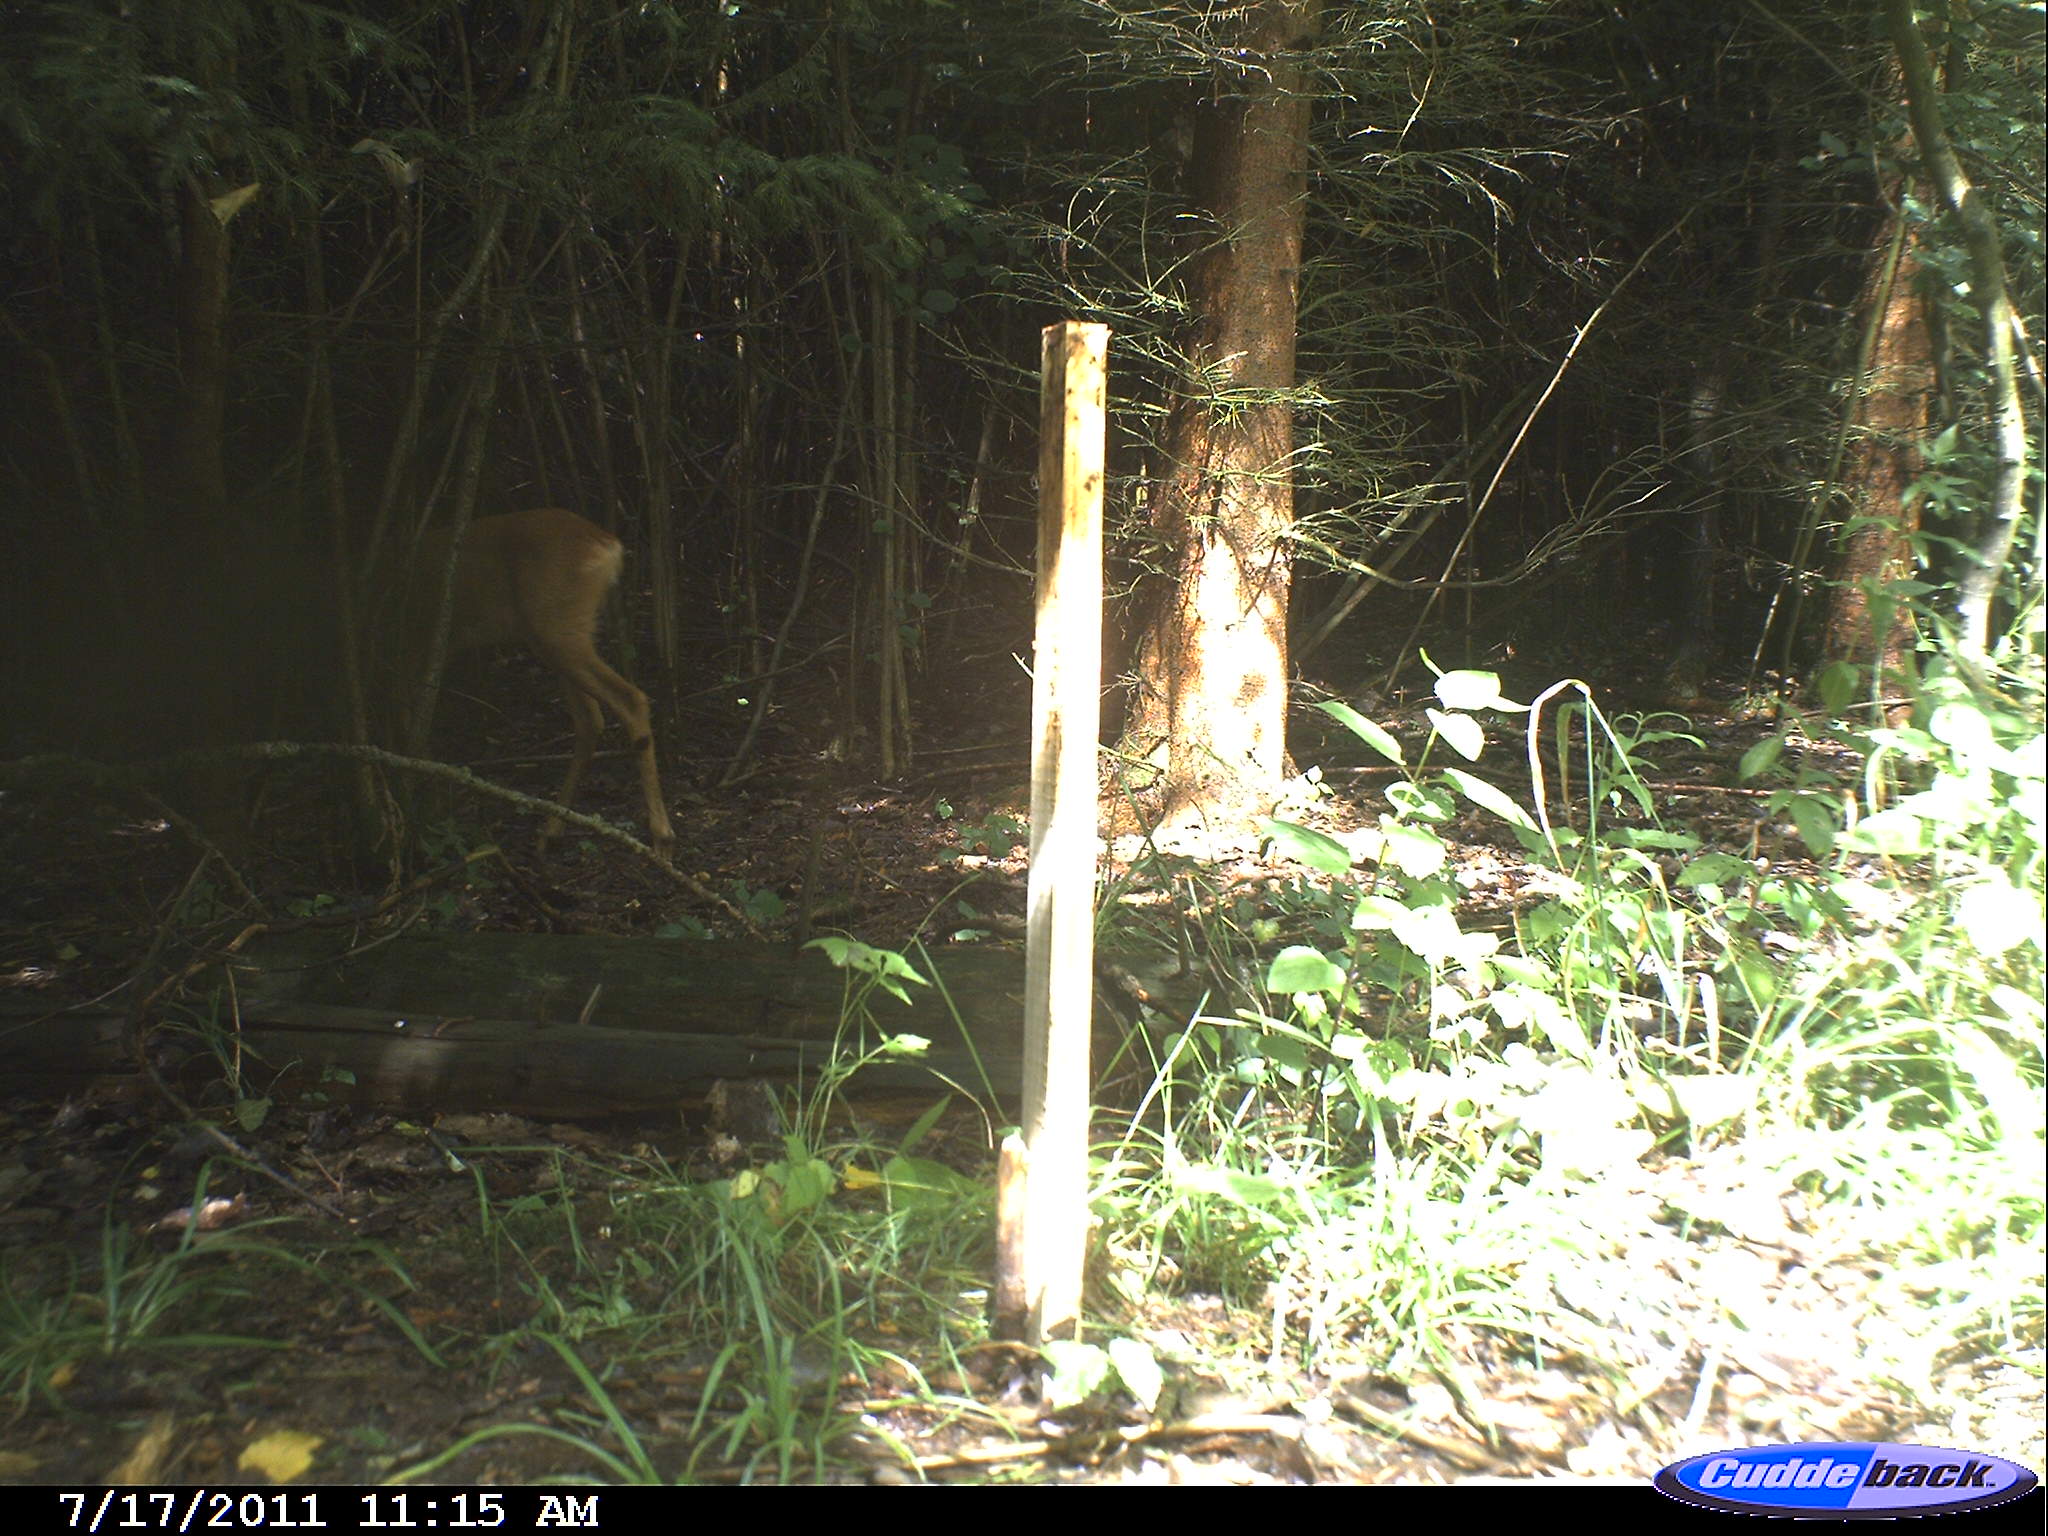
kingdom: Animalia
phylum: Chordata
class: Mammalia
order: Artiodactyla
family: Cervidae
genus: Capreolus
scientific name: Capreolus capreolus
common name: Western roe deer
